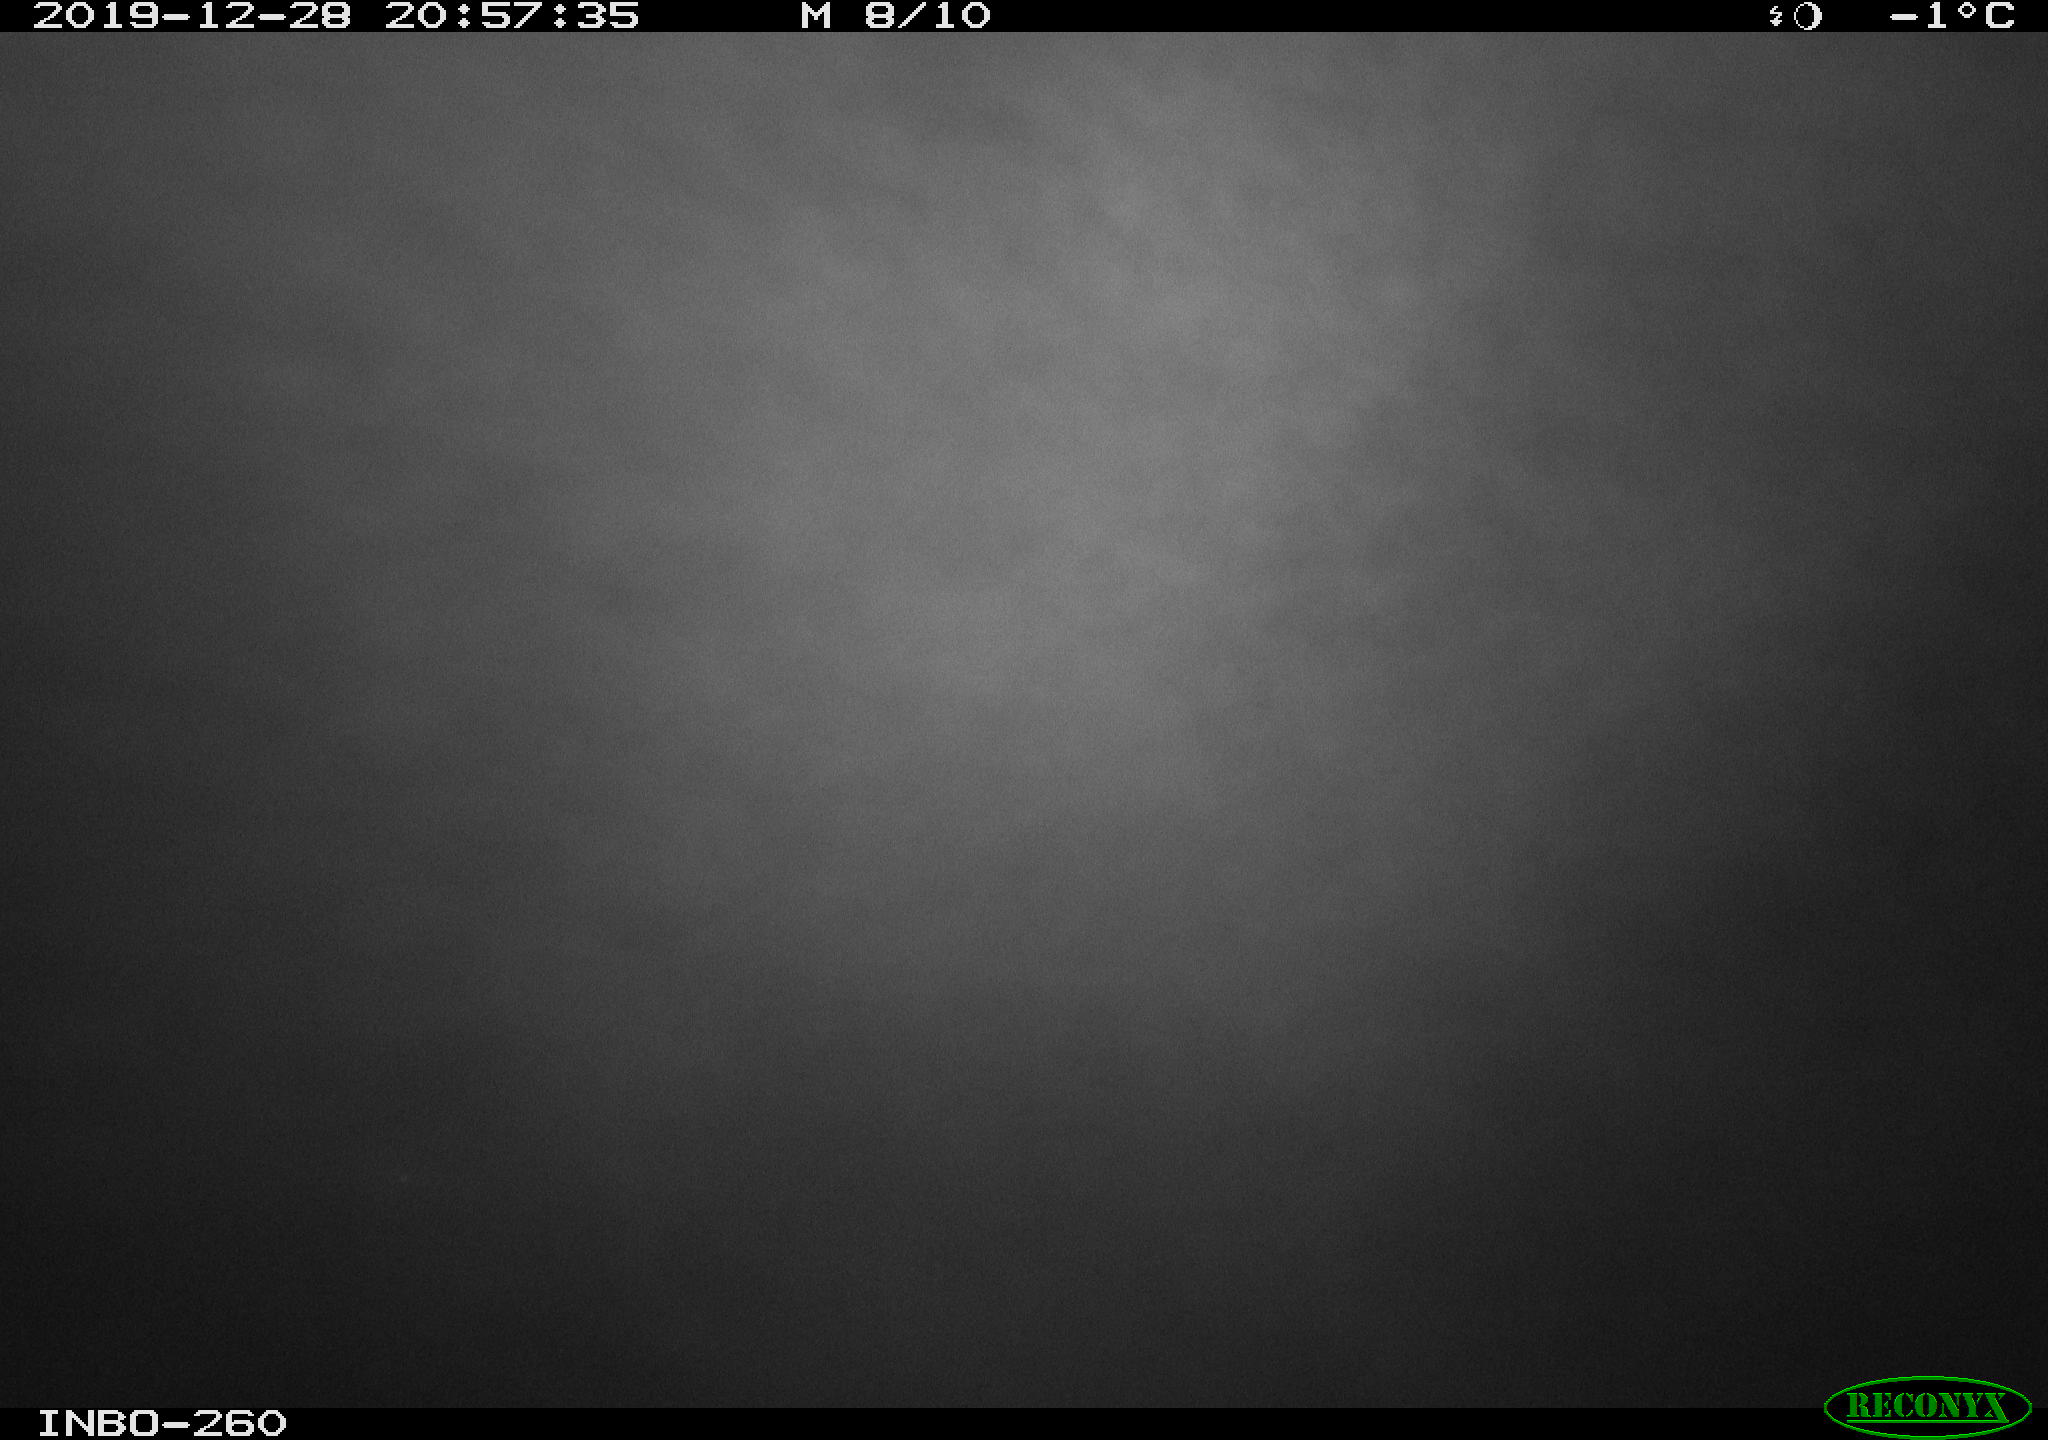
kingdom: Animalia
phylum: Chordata
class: Aves
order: Anseriformes
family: Anatidae
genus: Anas
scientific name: Anas platyrhynchos
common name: Mallard
